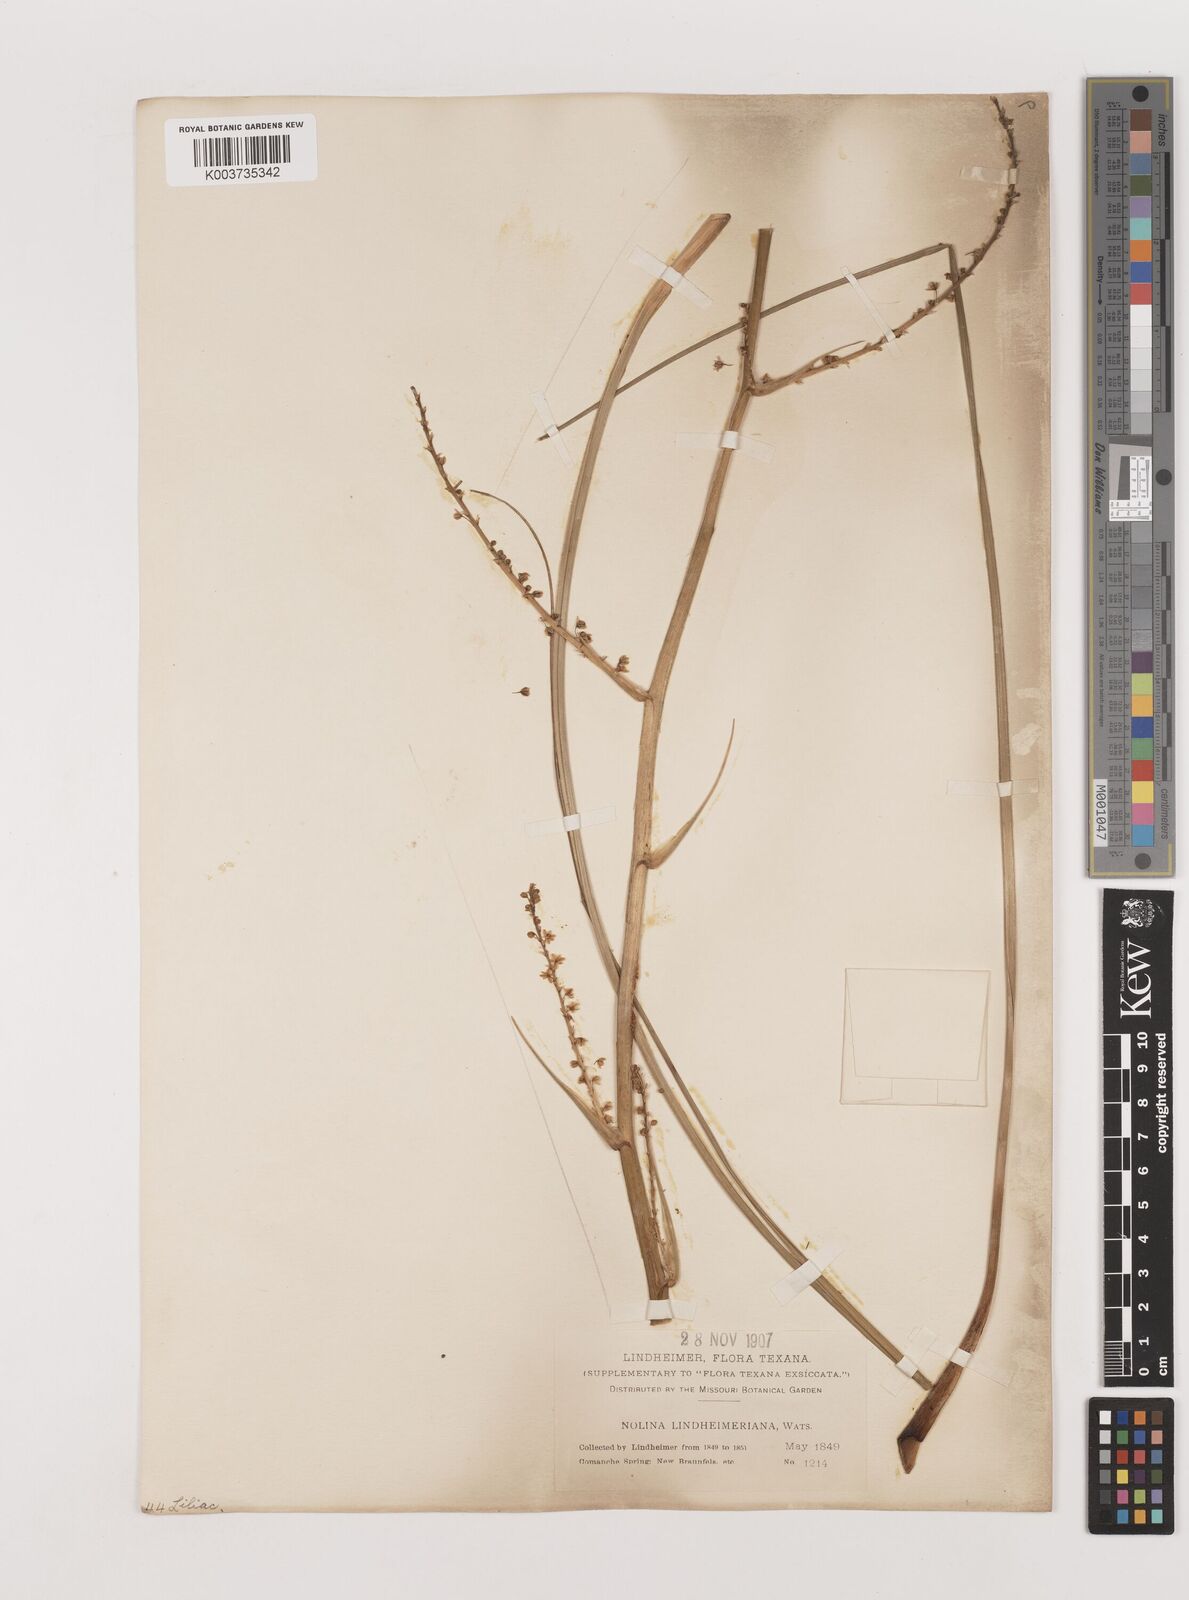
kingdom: Plantae
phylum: Tracheophyta
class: Liliopsida
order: Asparagales
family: Asparagaceae
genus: Nolina
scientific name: Nolina lindheimeriana
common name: Lindheimer's bear-grass
